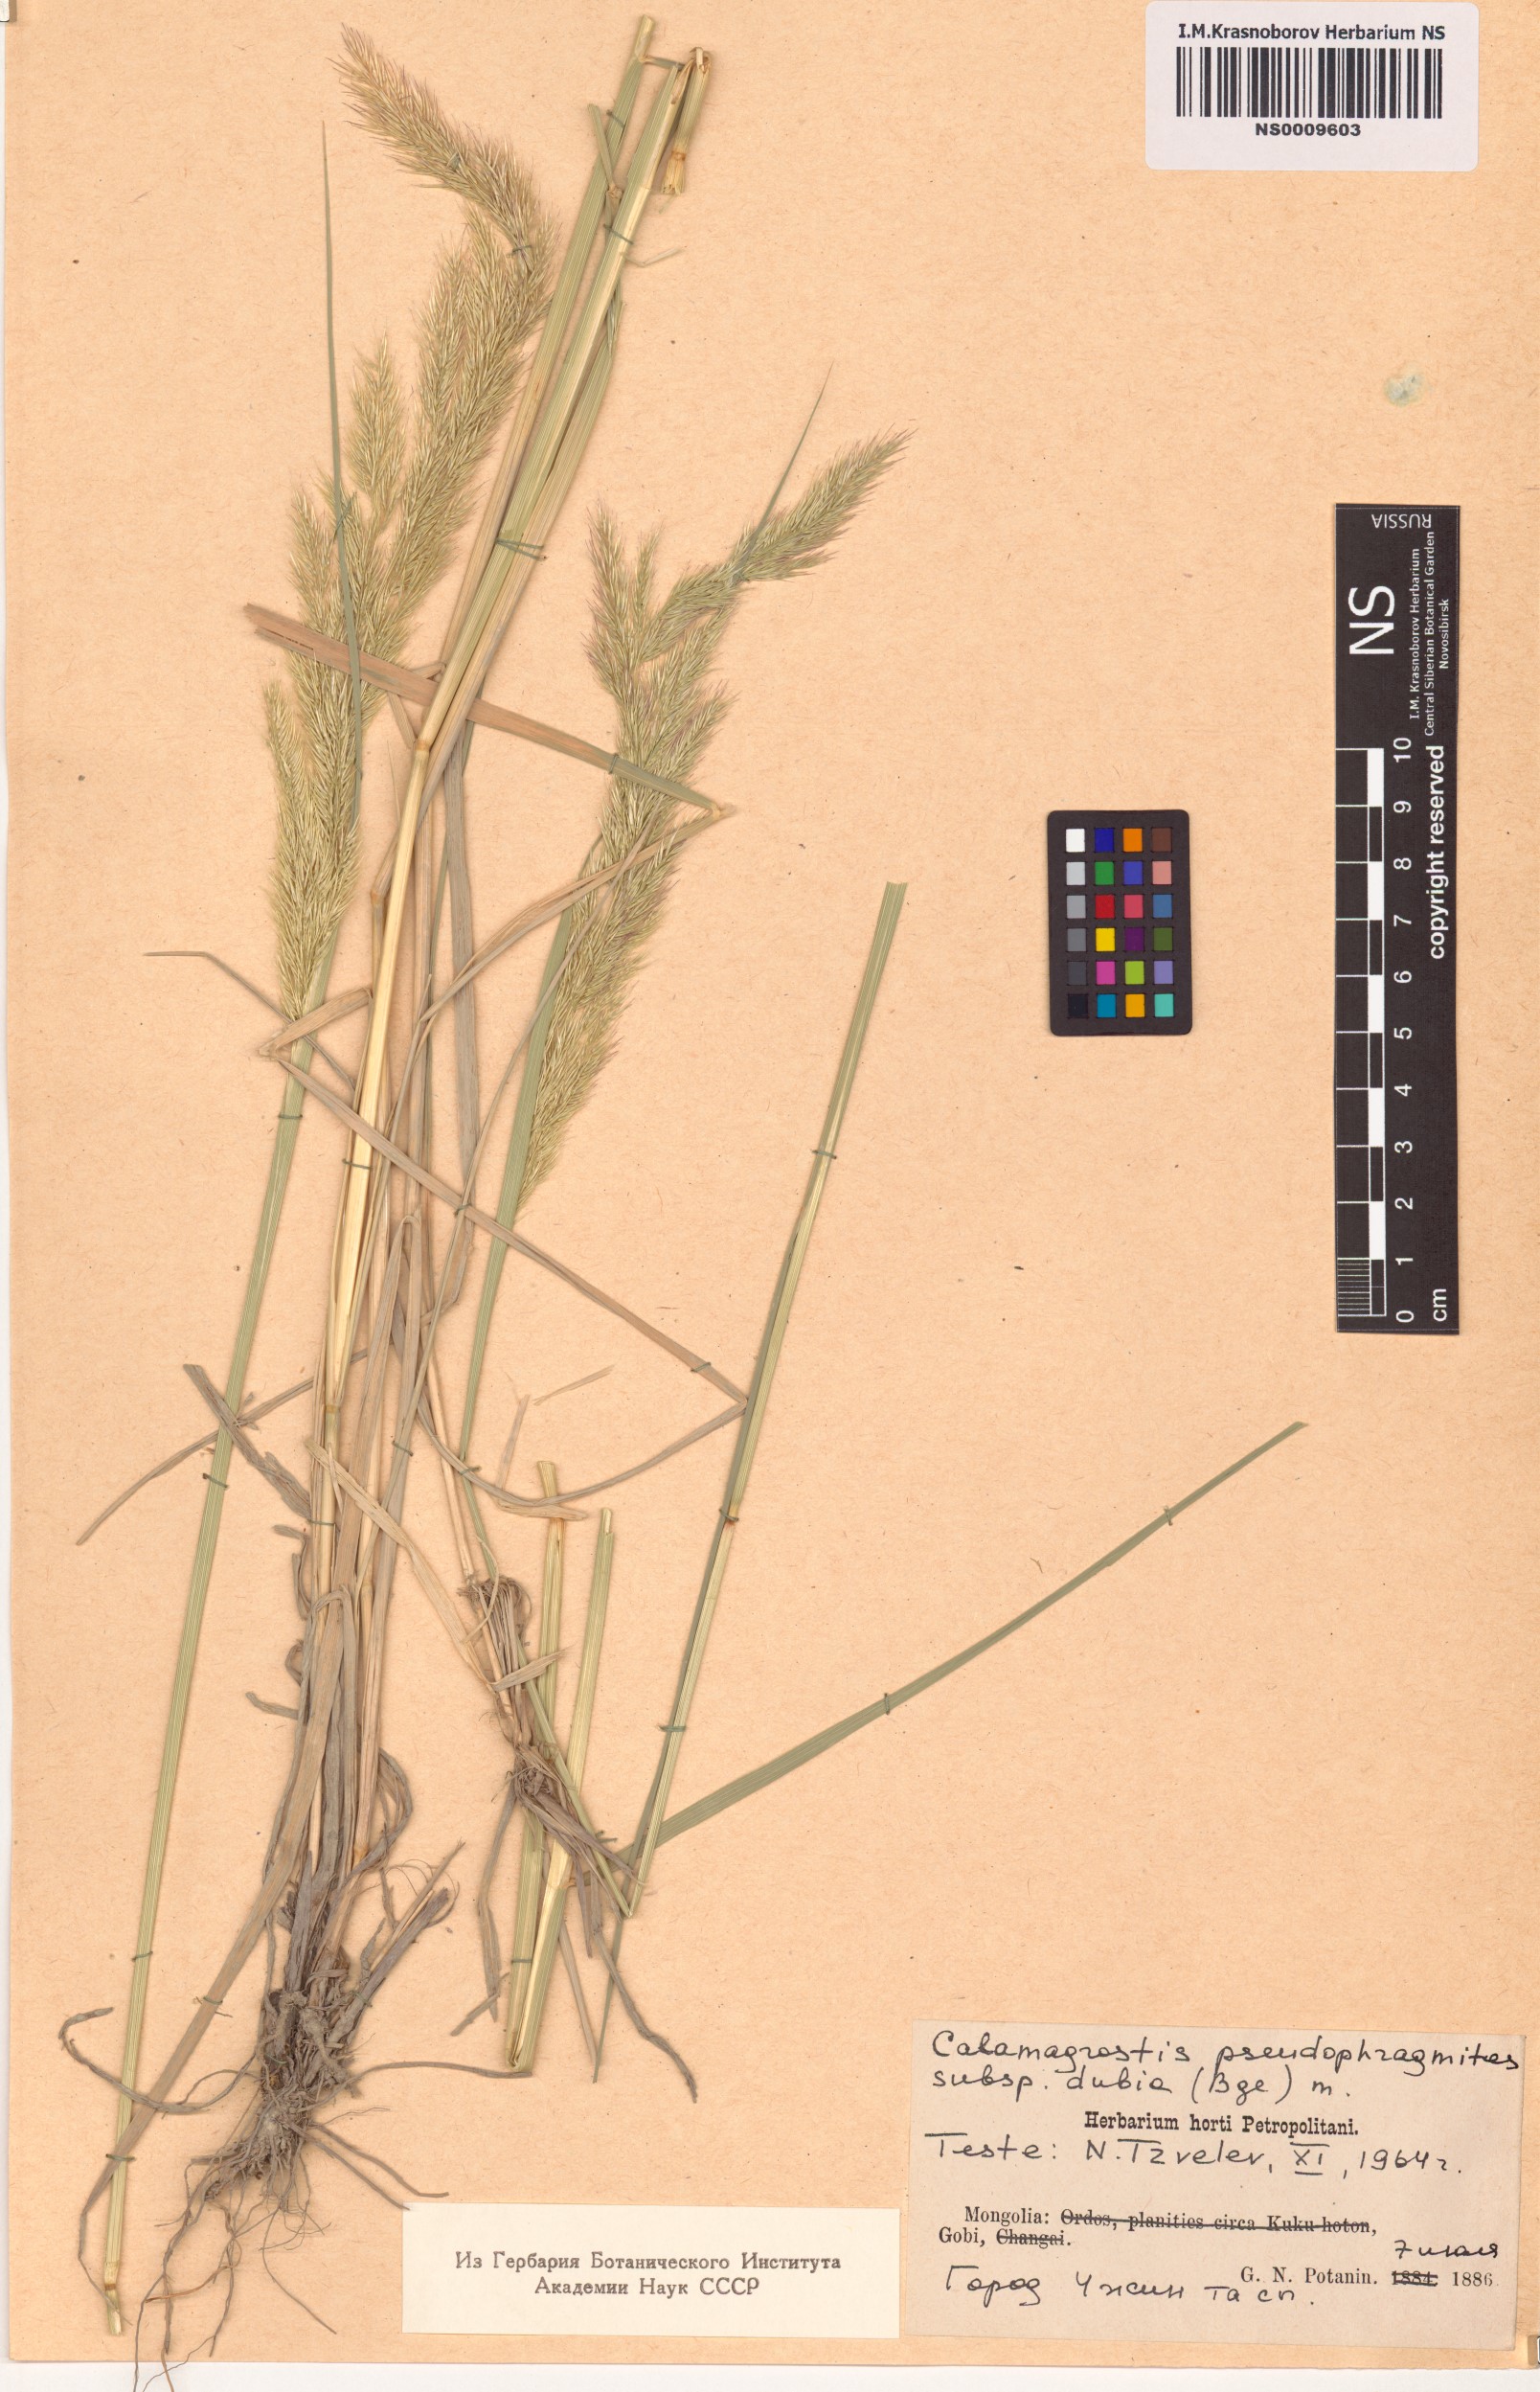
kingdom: Plantae
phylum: Tracheophyta
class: Liliopsida
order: Poales
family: Poaceae
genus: Calamagrostis
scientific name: Calamagrostis pseudophragmites
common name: Coastal small-reed
